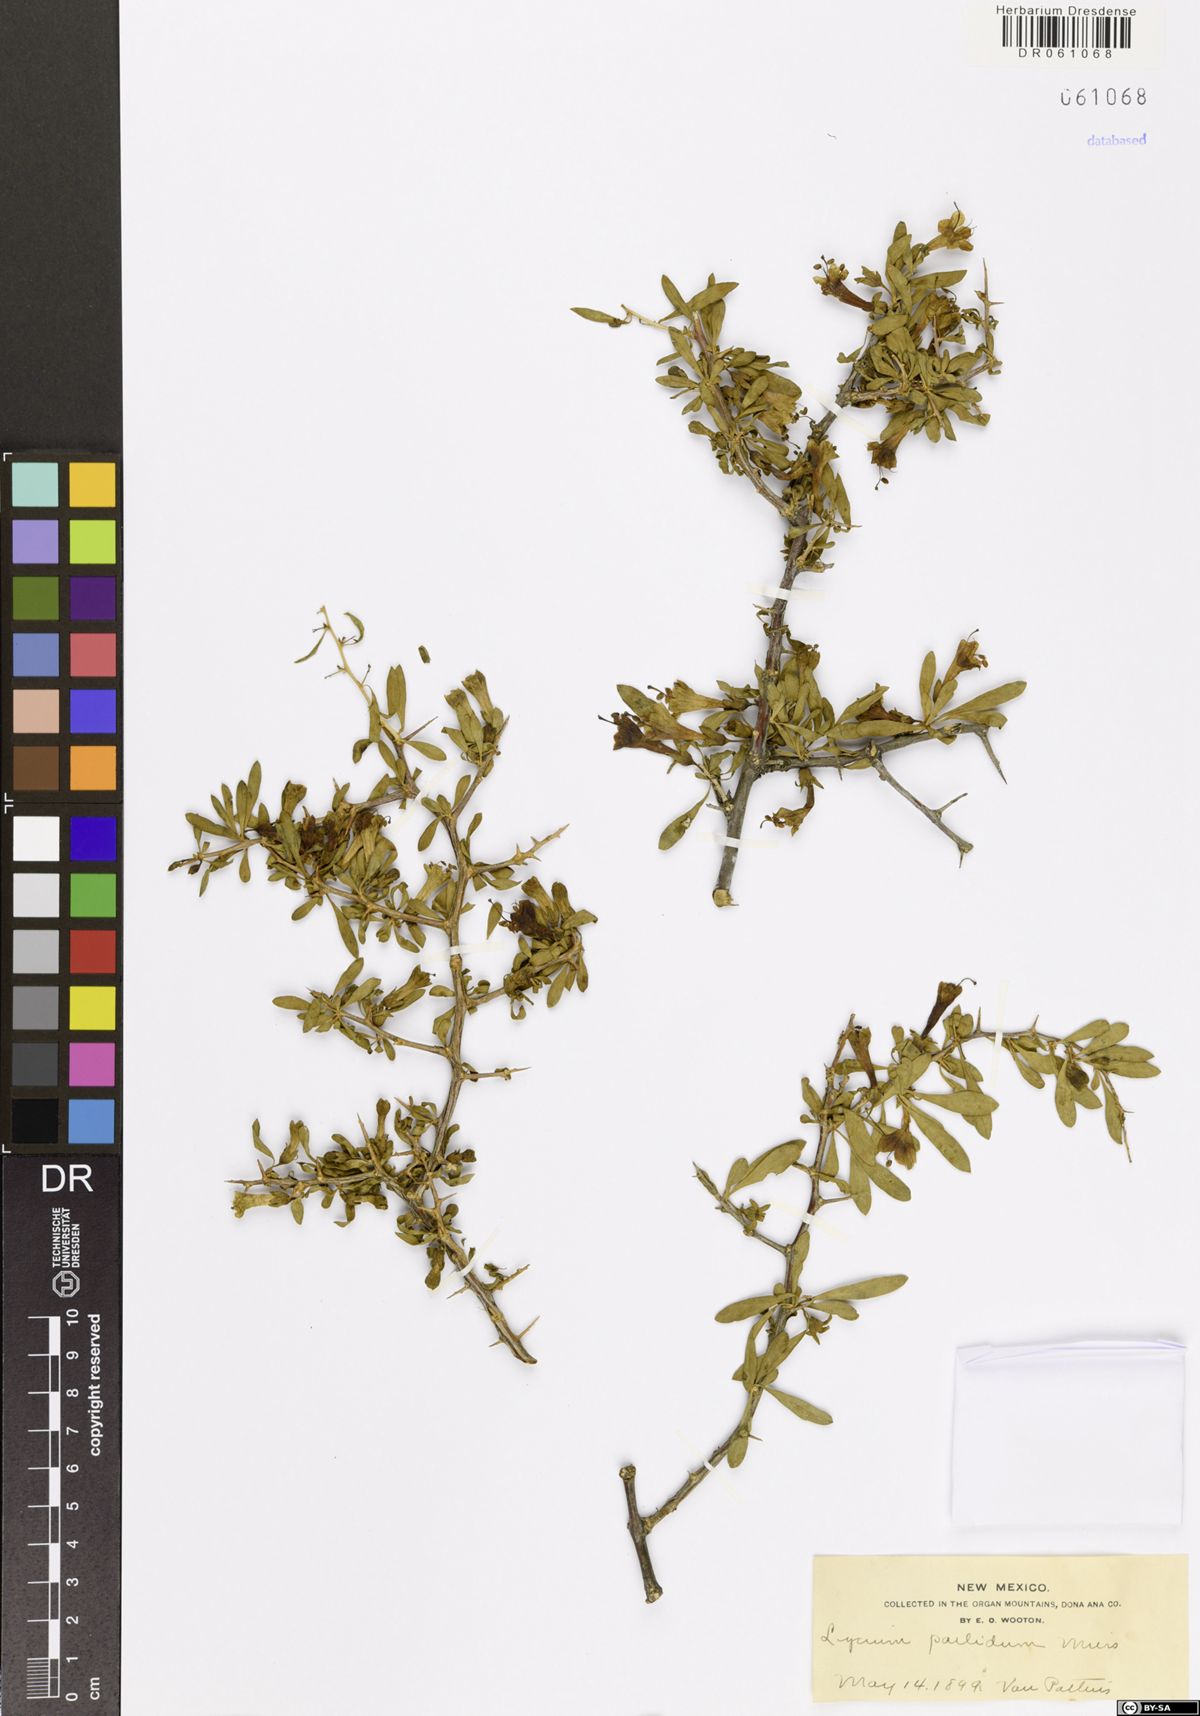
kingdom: Plantae
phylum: Tracheophyta
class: Magnoliopsida
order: Solanales
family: Solanaceae
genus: Lycium
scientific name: Lycium pallidum
